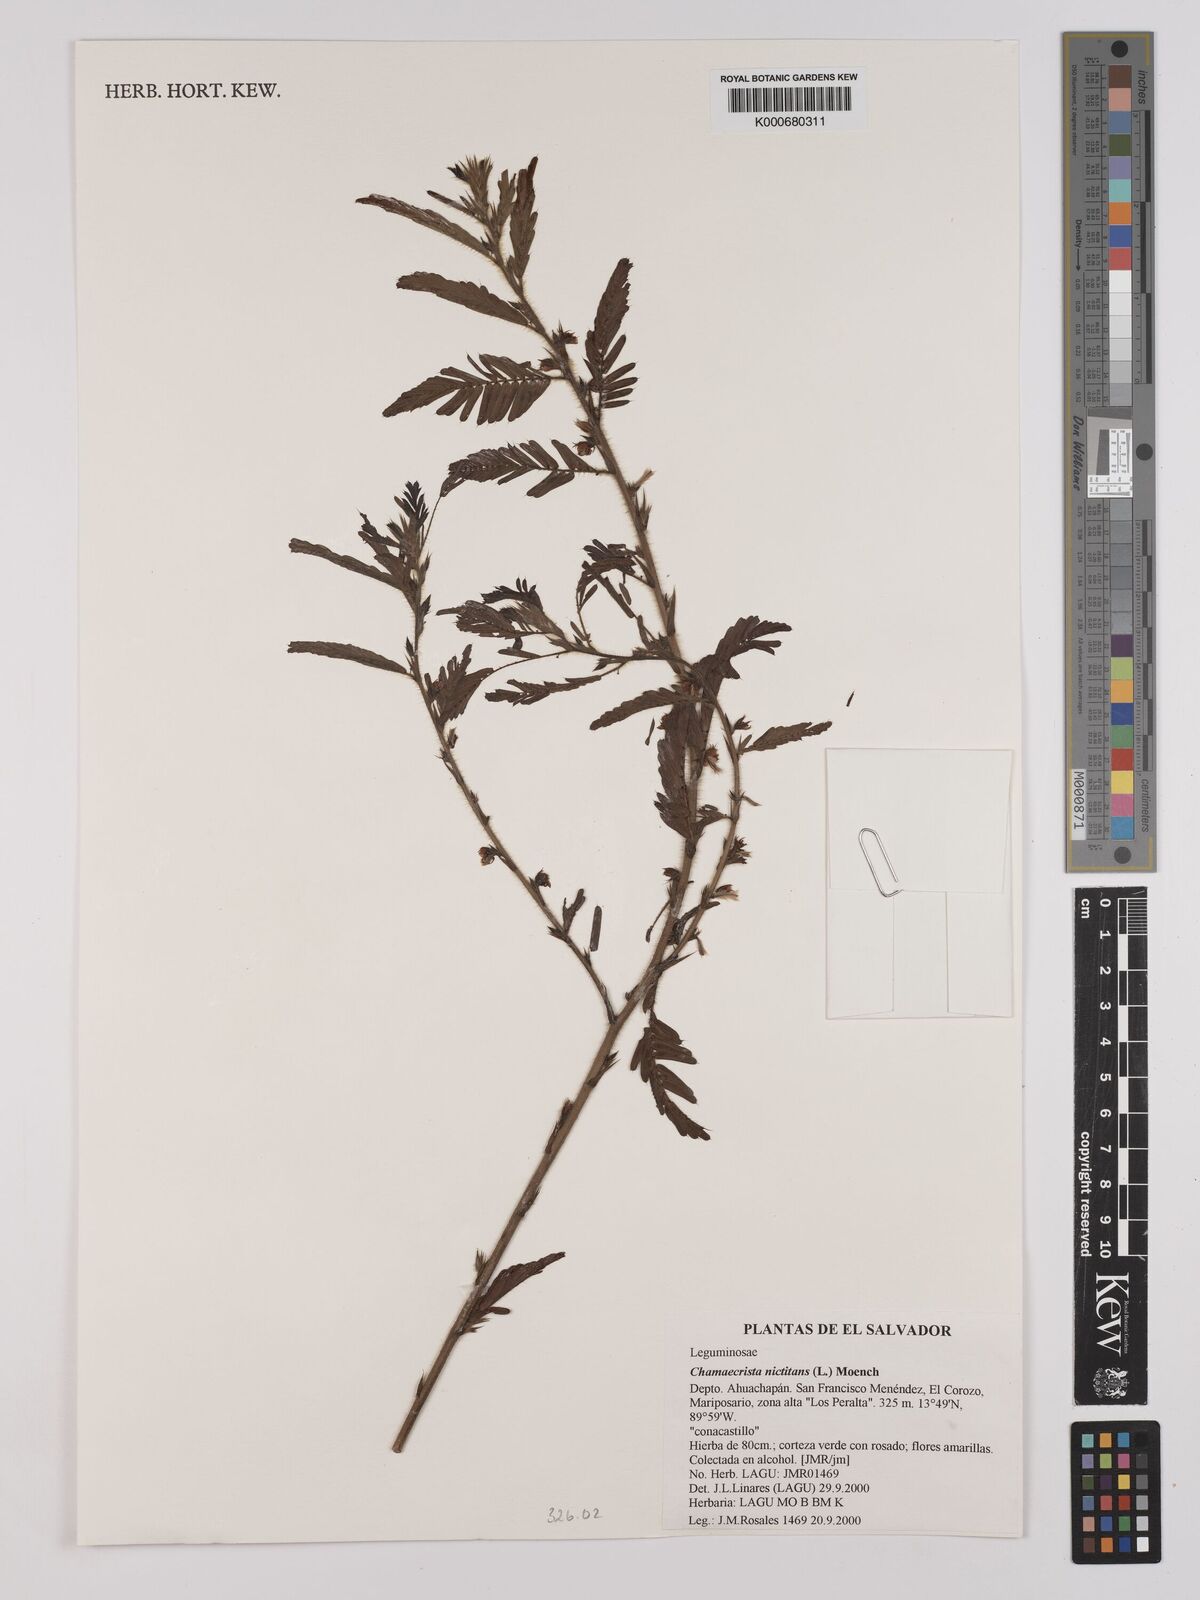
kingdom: Plantae
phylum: Tracheophyta
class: Magnoliopsida
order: Fabales
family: Fabaceae
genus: Chamaecrista
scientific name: Chamaecrista nictitans
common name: Sensitive cassia
